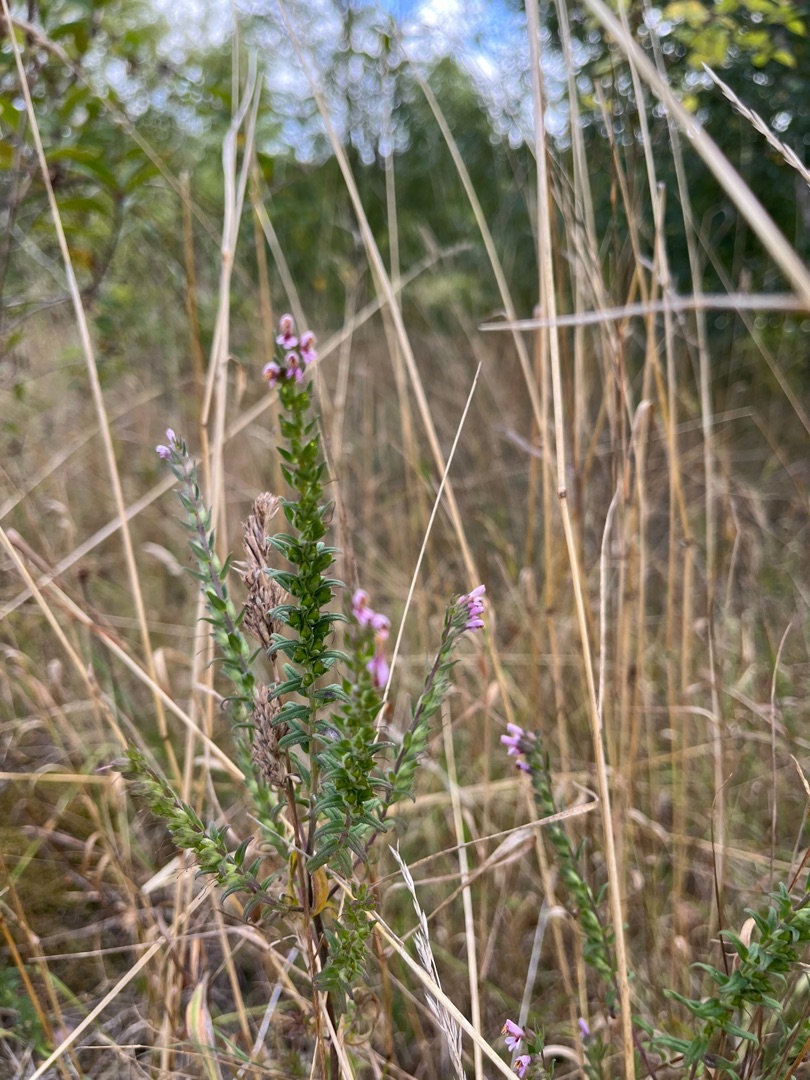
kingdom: Plantae
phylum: Tracheophyta
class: Magnoliopsida
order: Lamiales
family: Orobanchaceae
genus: Odontites
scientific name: Odontites vulgaris
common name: Høst-rødtop
